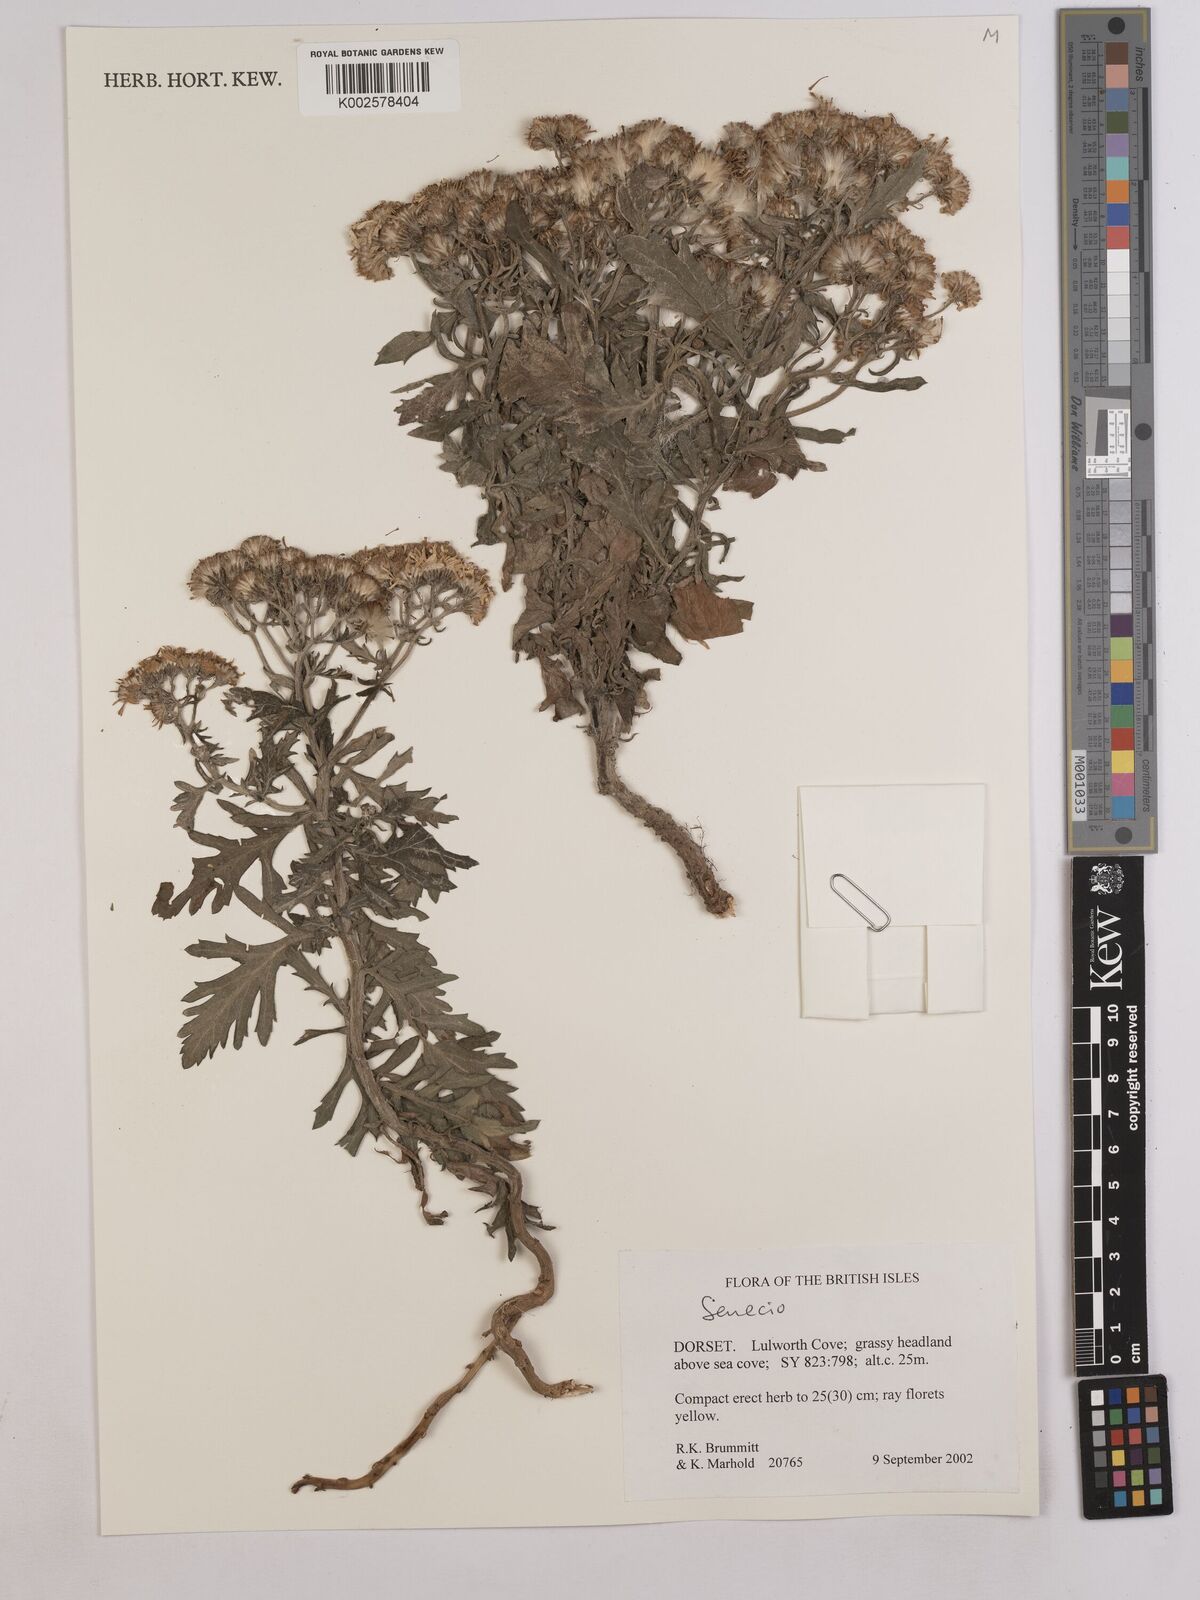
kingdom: Plantae
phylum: Tracheophyta
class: Magnoliopsida
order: Asterales
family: Asteraceae
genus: Jacobaea
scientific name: Jacobaea vulgaris
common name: Stinking willie
